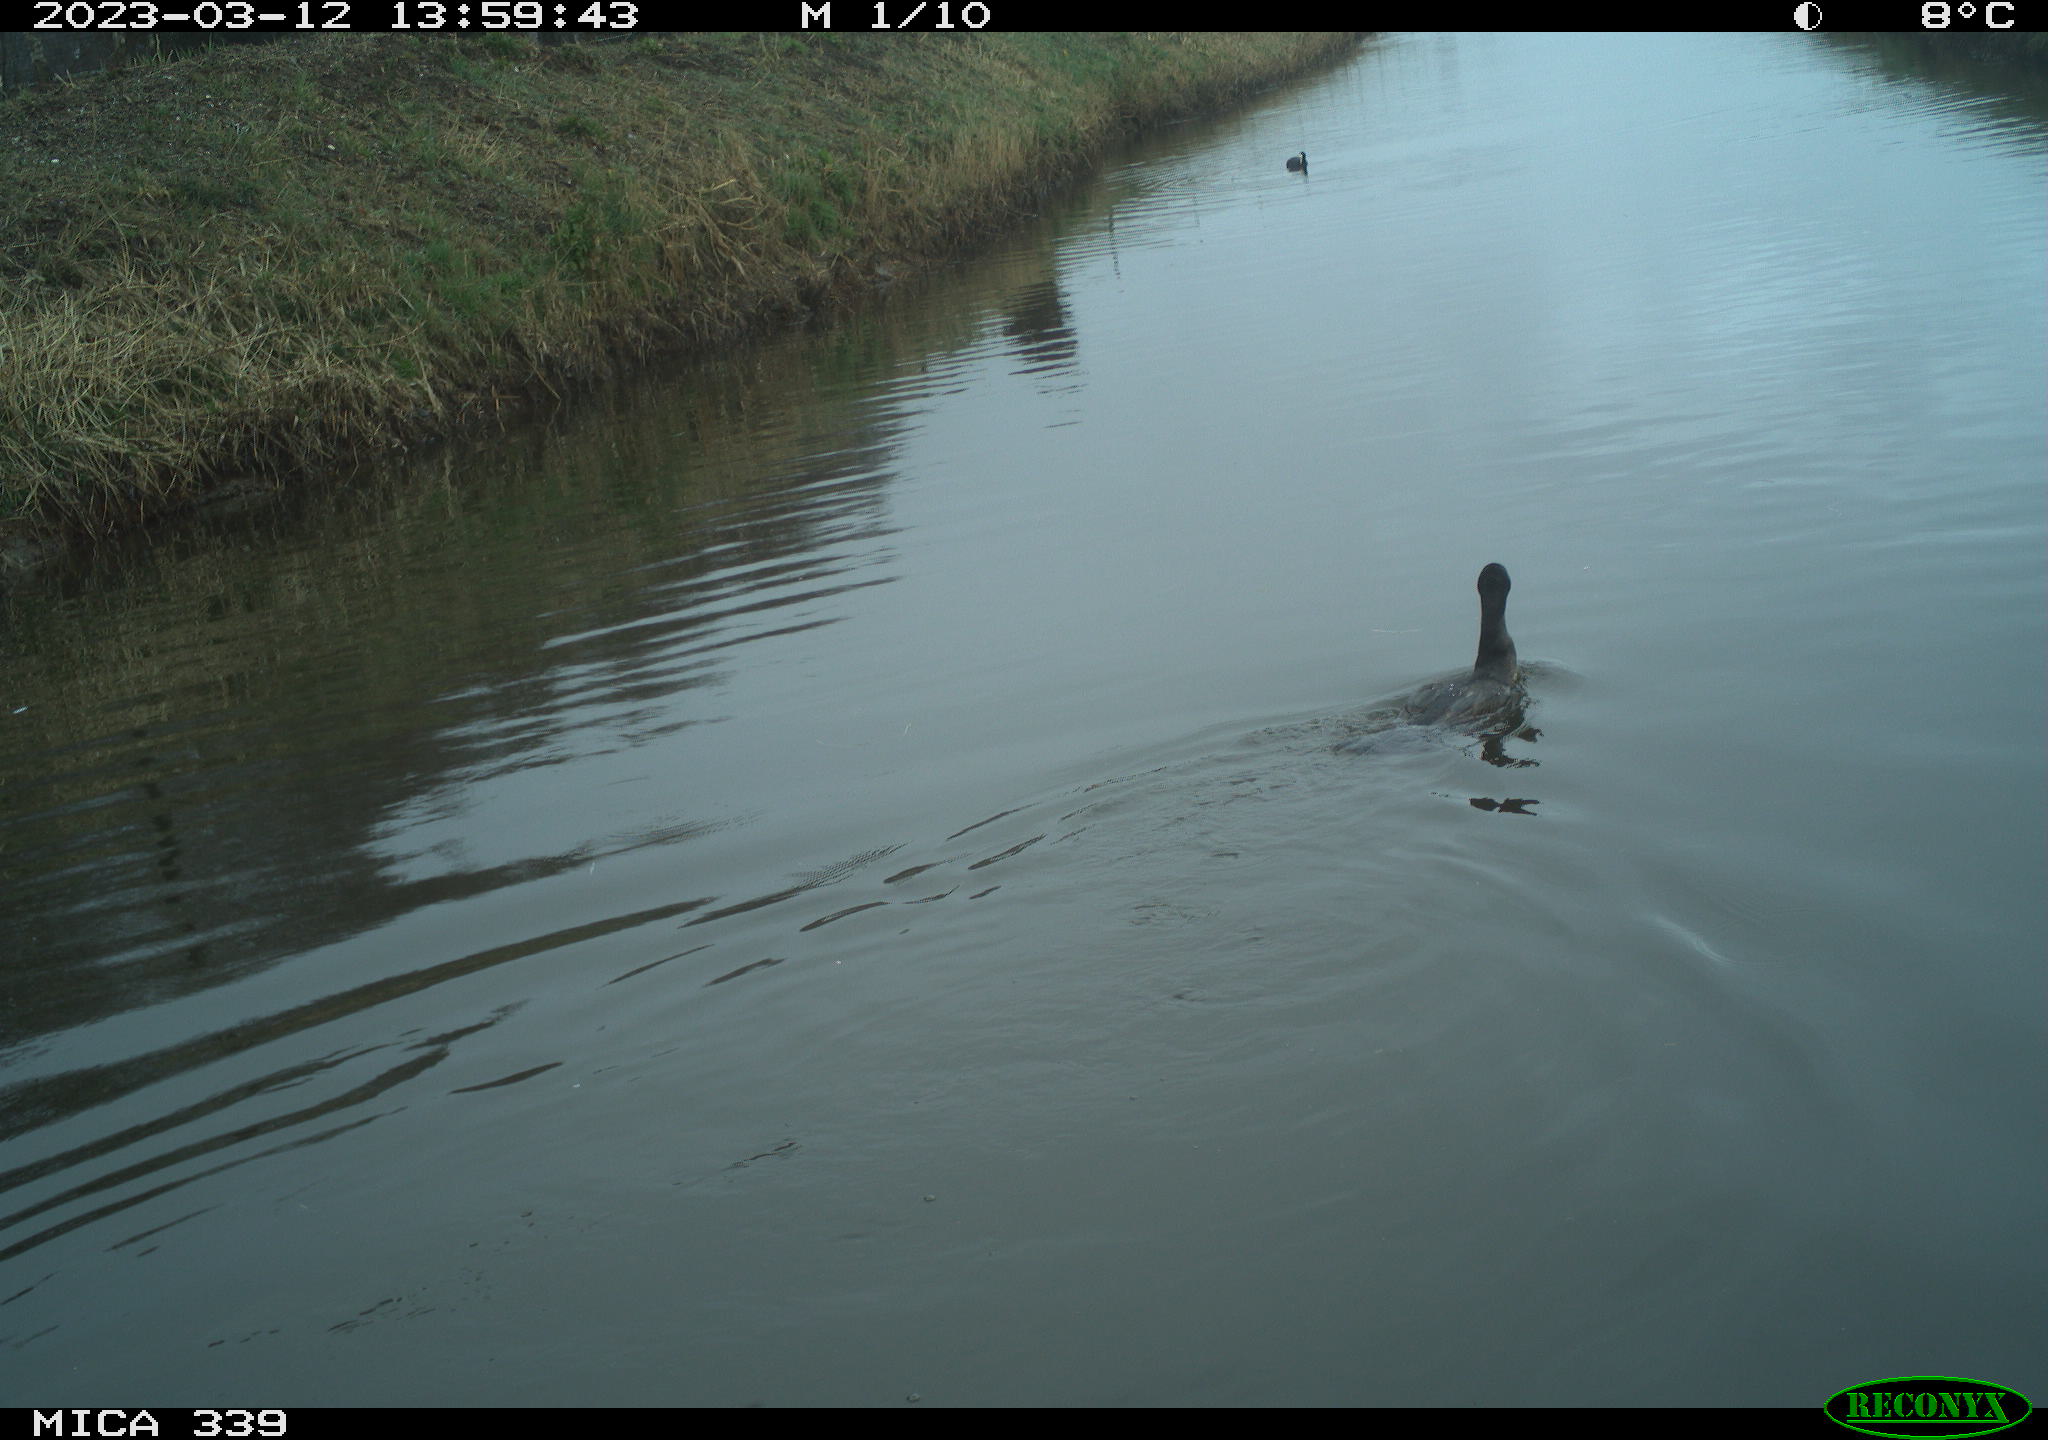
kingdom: Animalia
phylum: Chordata
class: Aves
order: Suliformes
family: Phalacrocoracidae
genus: Phalacrocorax
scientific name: Phalacrocorax carbo
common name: Great cormorant
